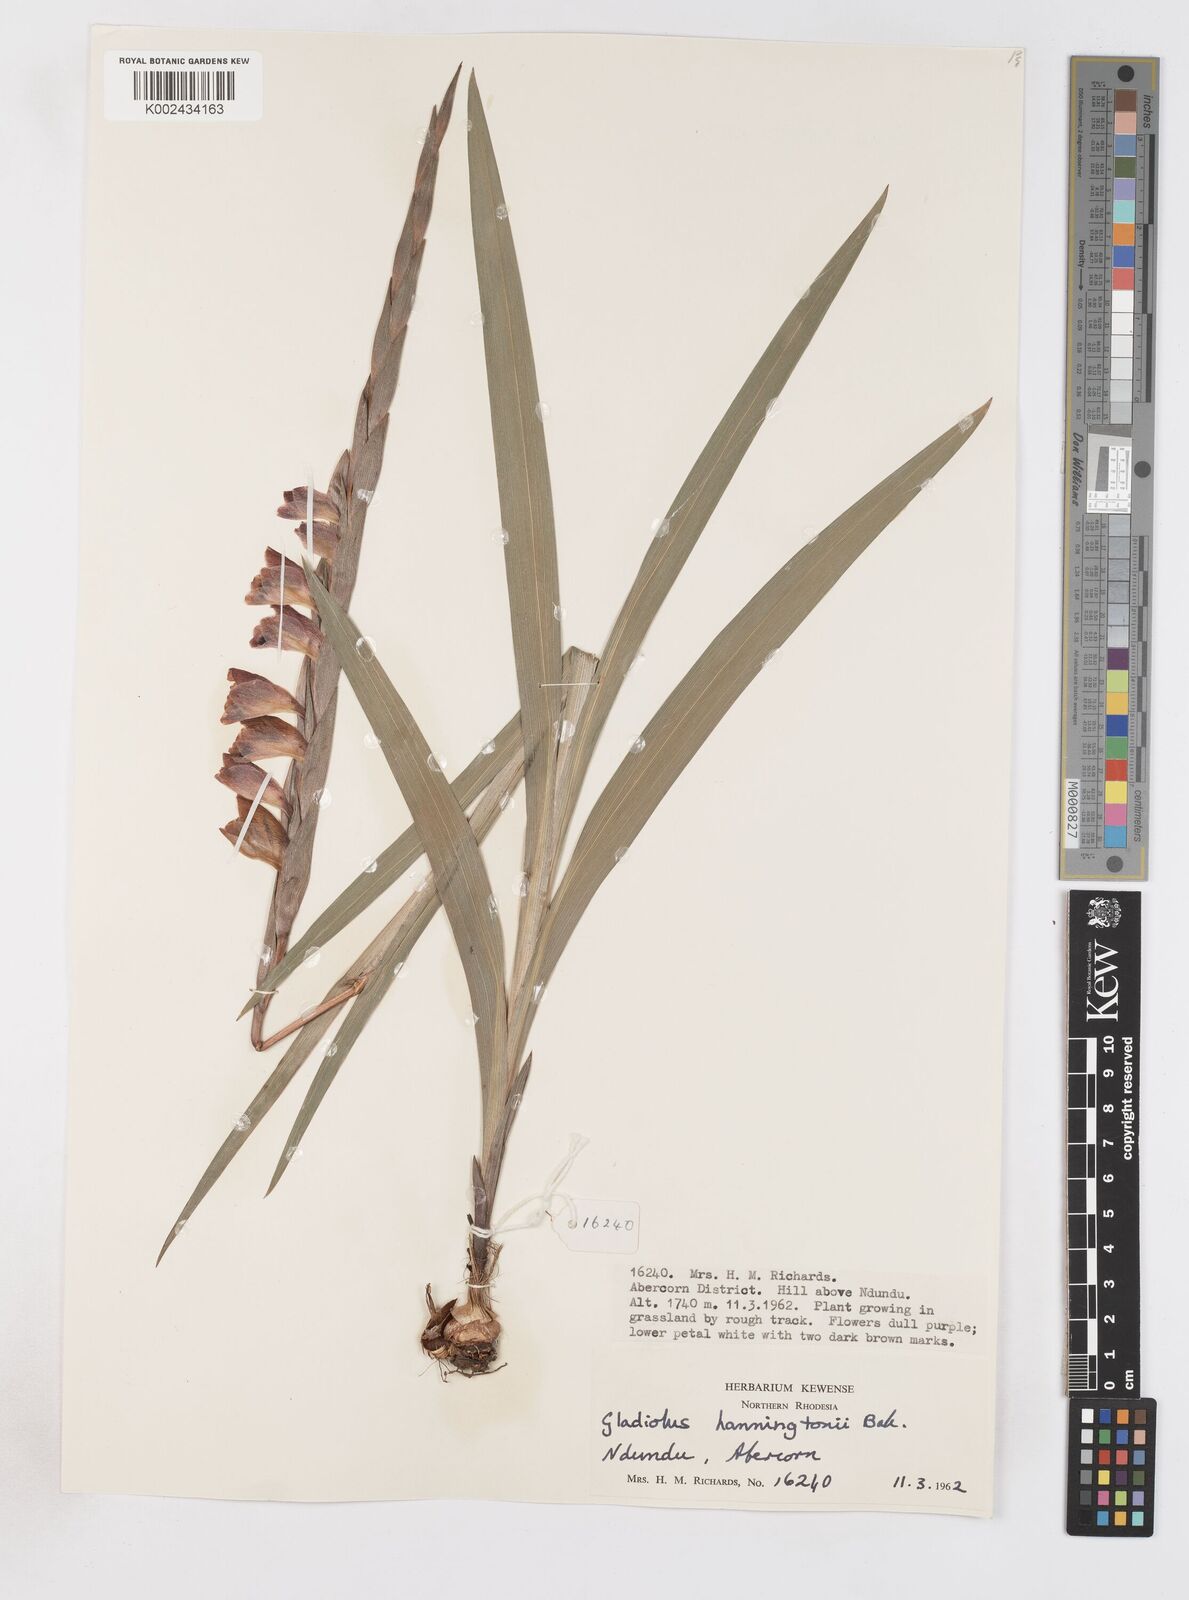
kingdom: Plantae
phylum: Tracheophyta
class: Liliopsida
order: Asparagales
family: Iridaceae
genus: Gladiolus
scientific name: Gladiolus gregarius
